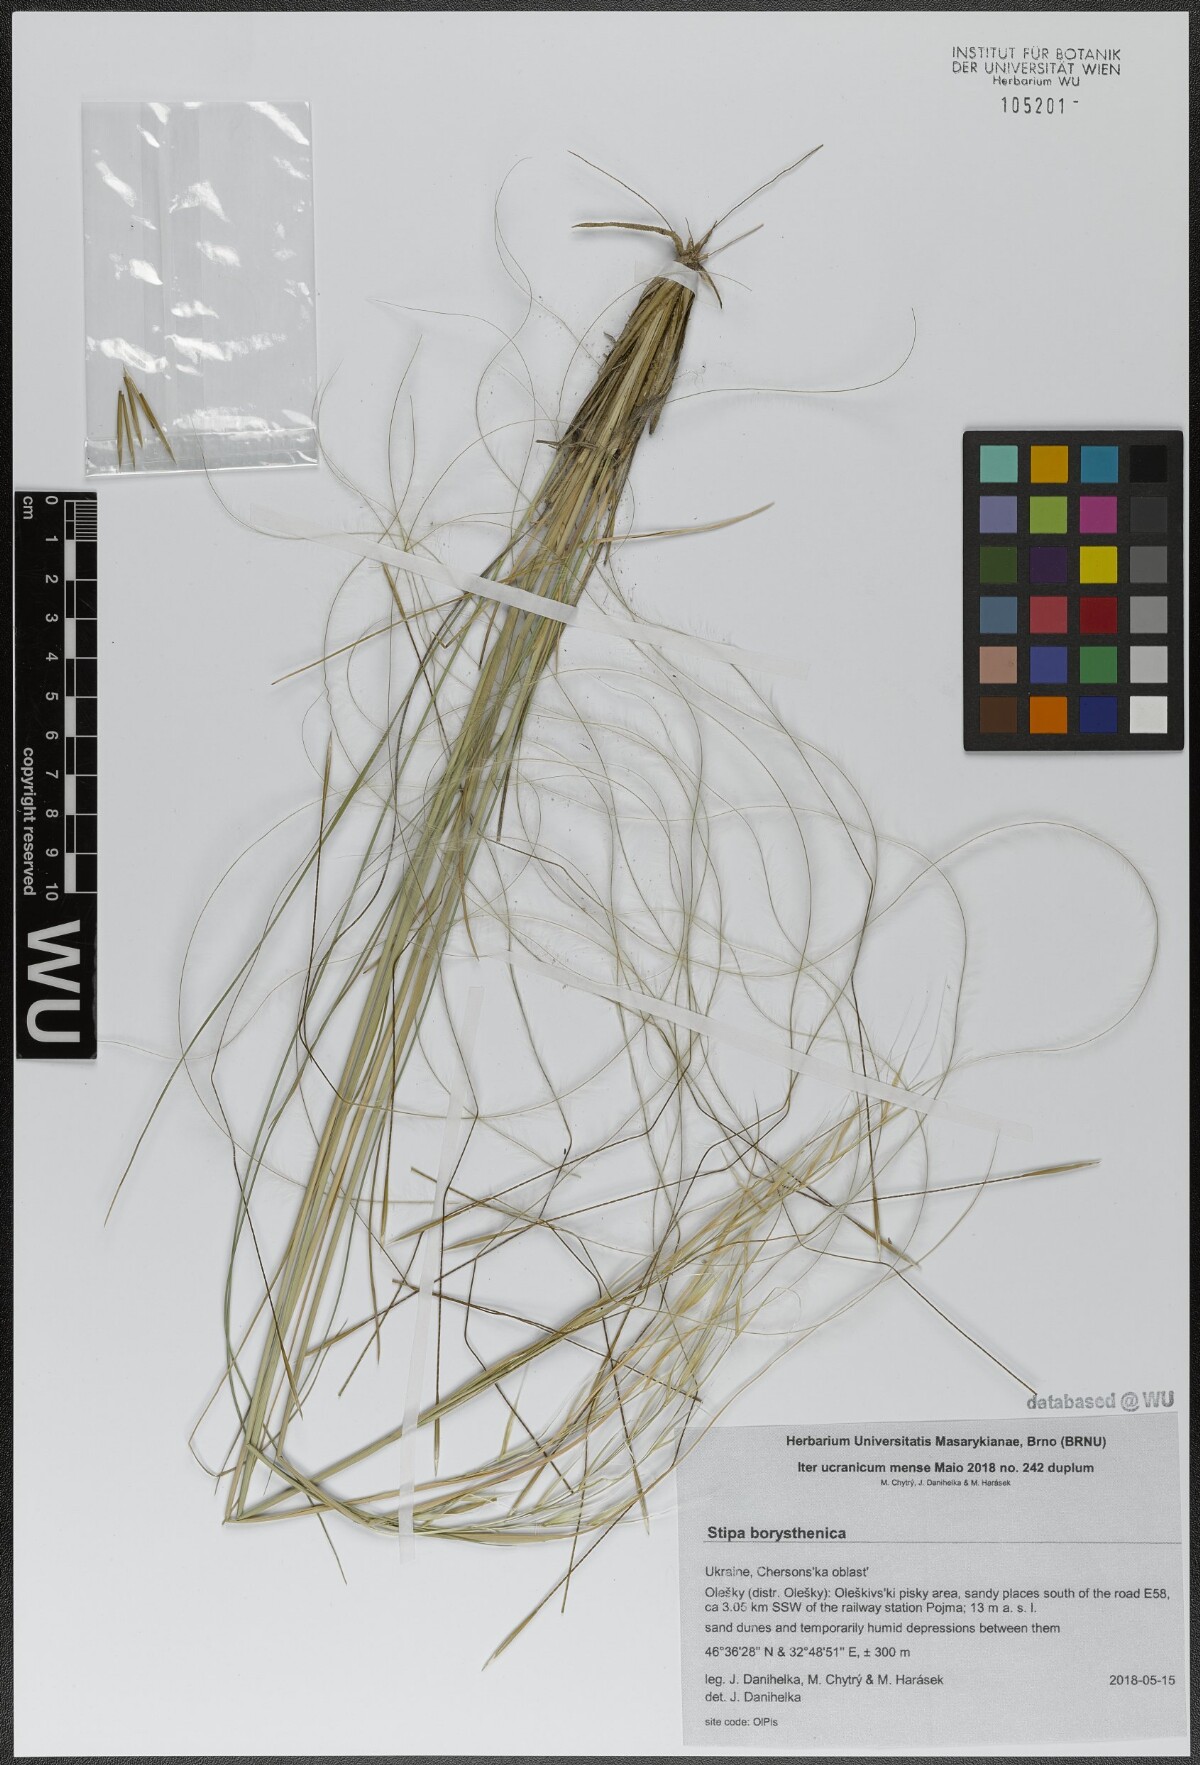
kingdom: Plantae
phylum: Tracheophyta
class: Liliopsida
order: Poales
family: Poaceae
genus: Stipa
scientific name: Stipa borysthenica
